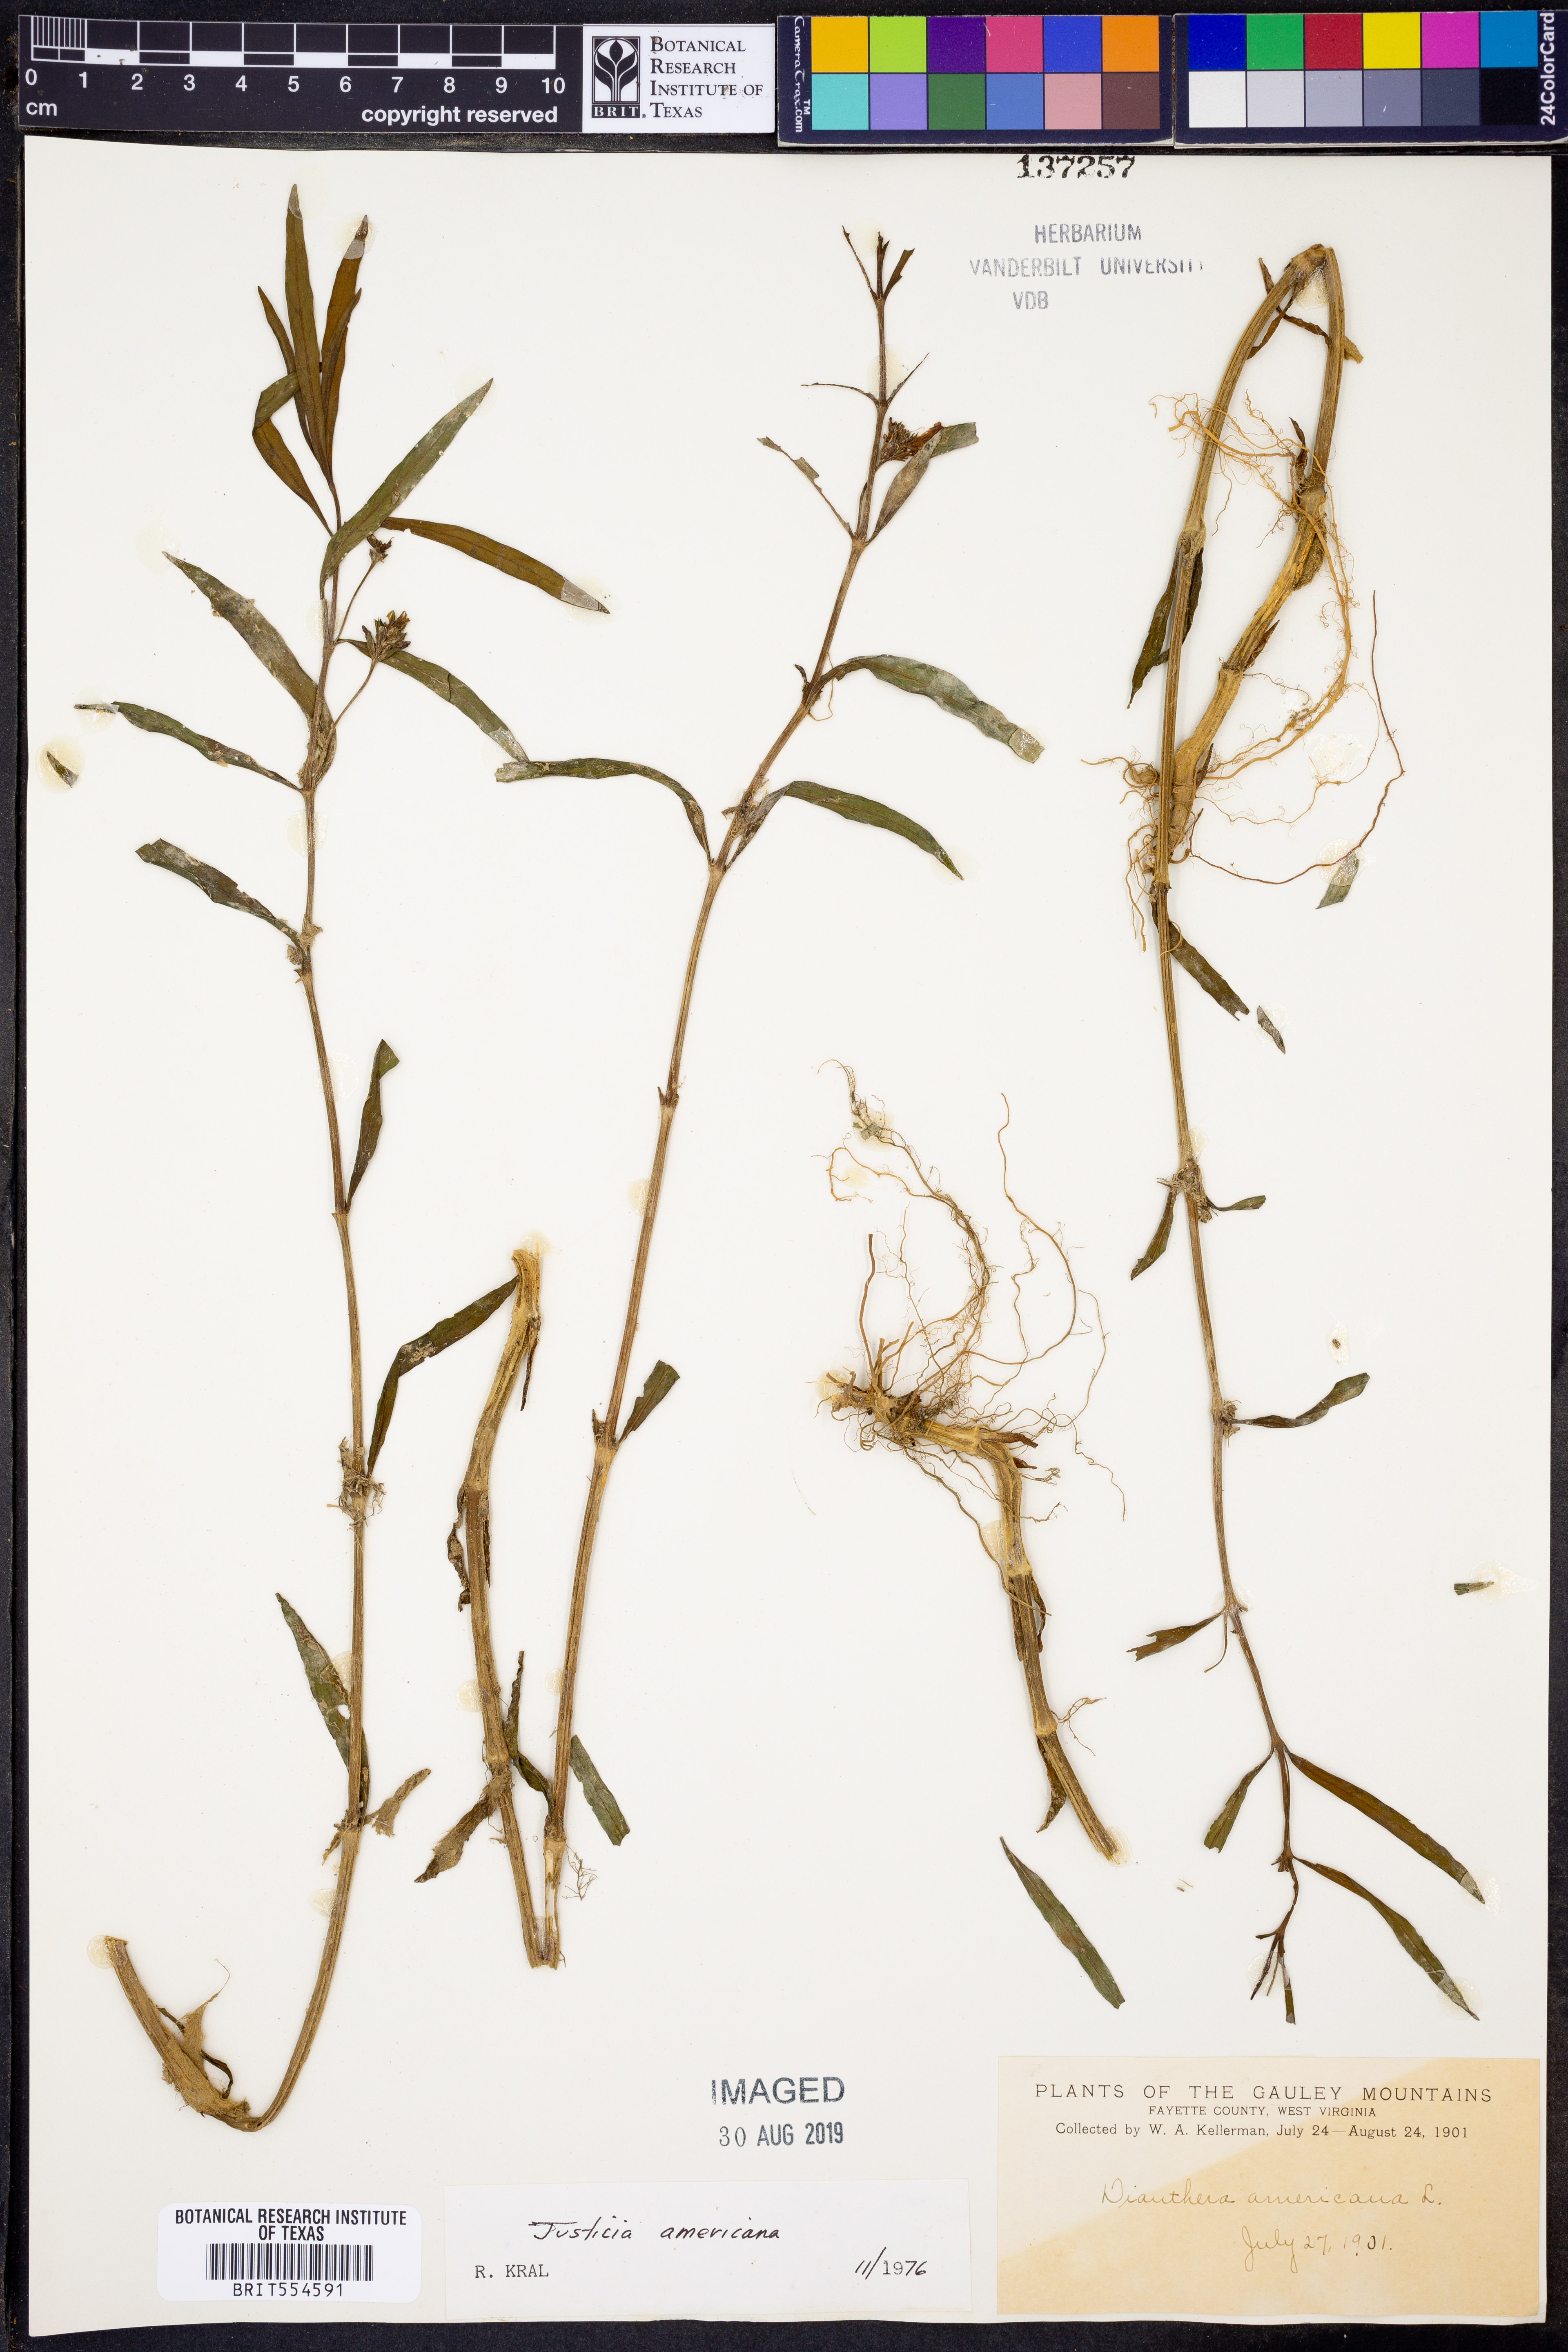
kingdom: Plantae
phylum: Tracheophyta
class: Magnoliopsida
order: Lamiales
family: Acanthaceae
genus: Dianthera
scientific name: Dianthera americana
